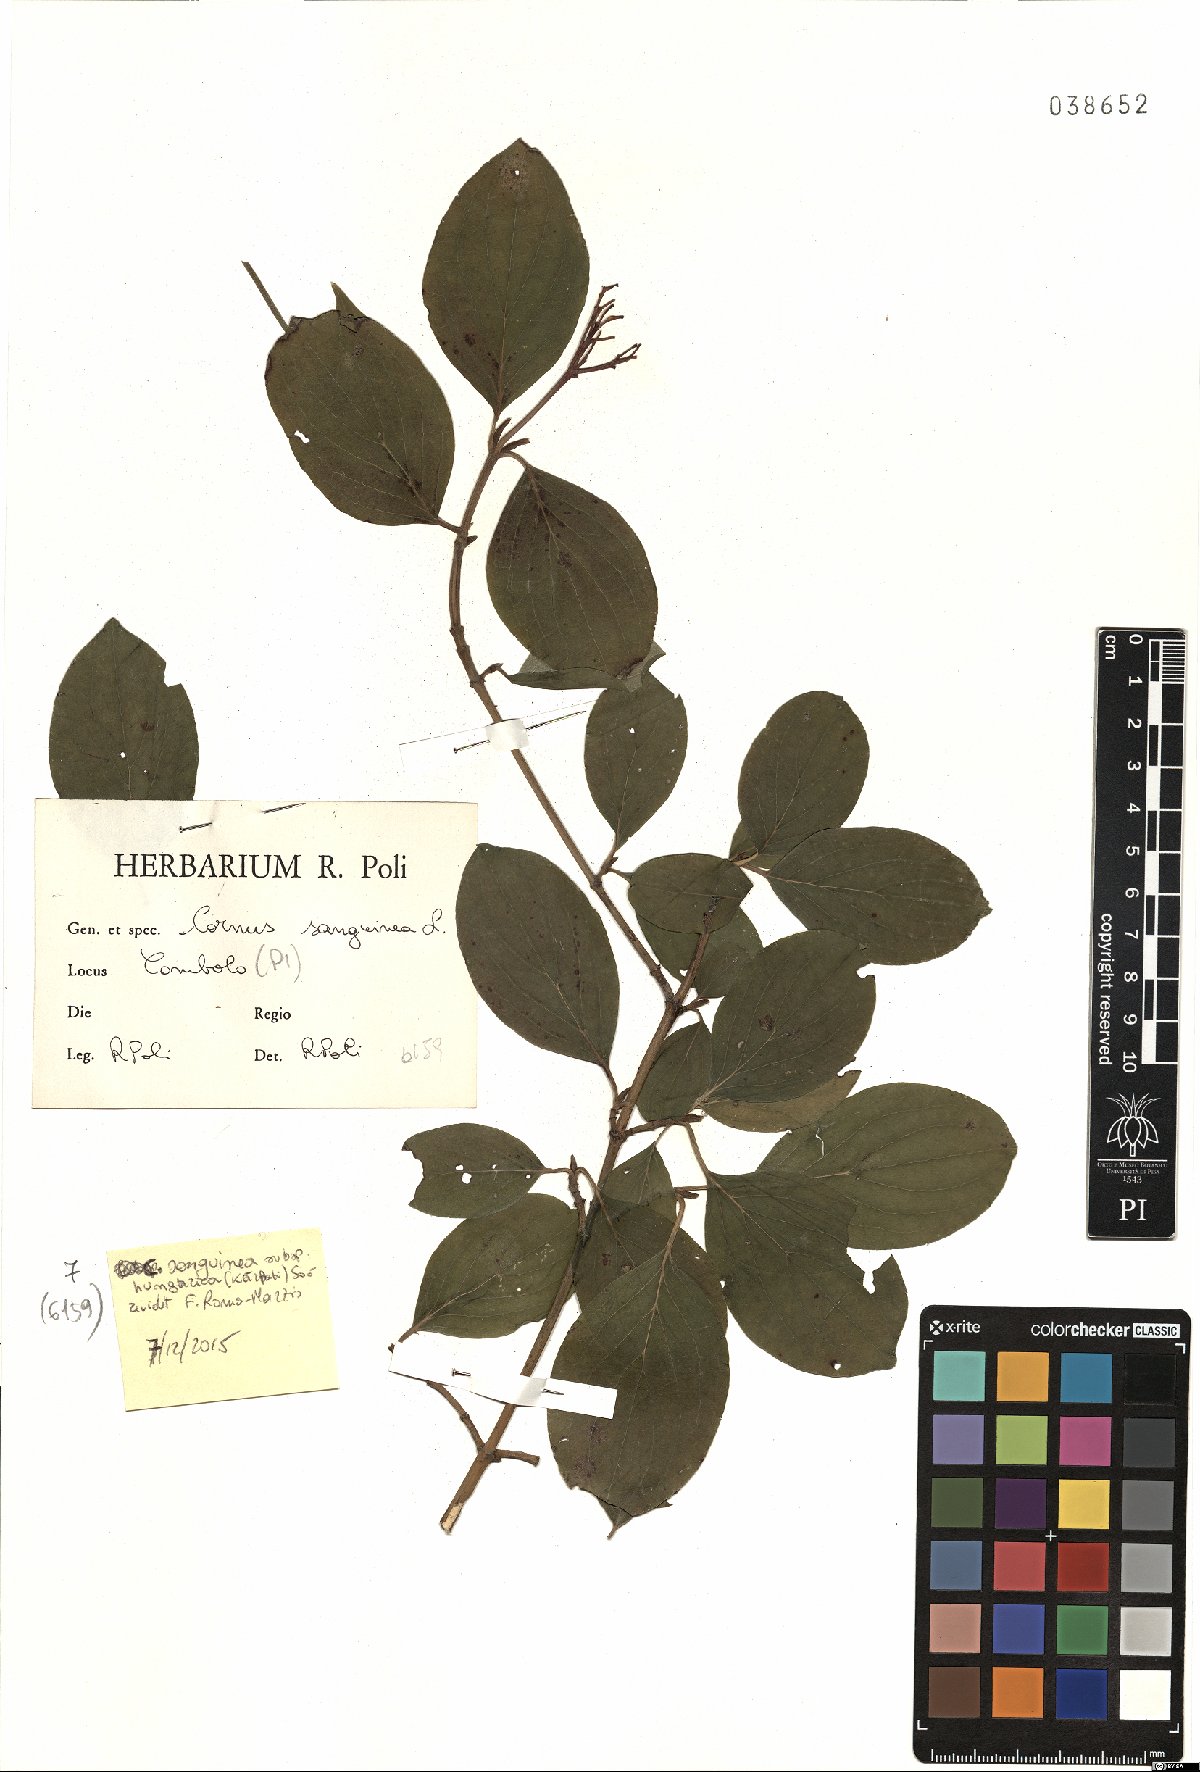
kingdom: Plantae
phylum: Tracheophyta
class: Magnoliopsida
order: Cornales
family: Cornaceae
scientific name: Cornaceae
